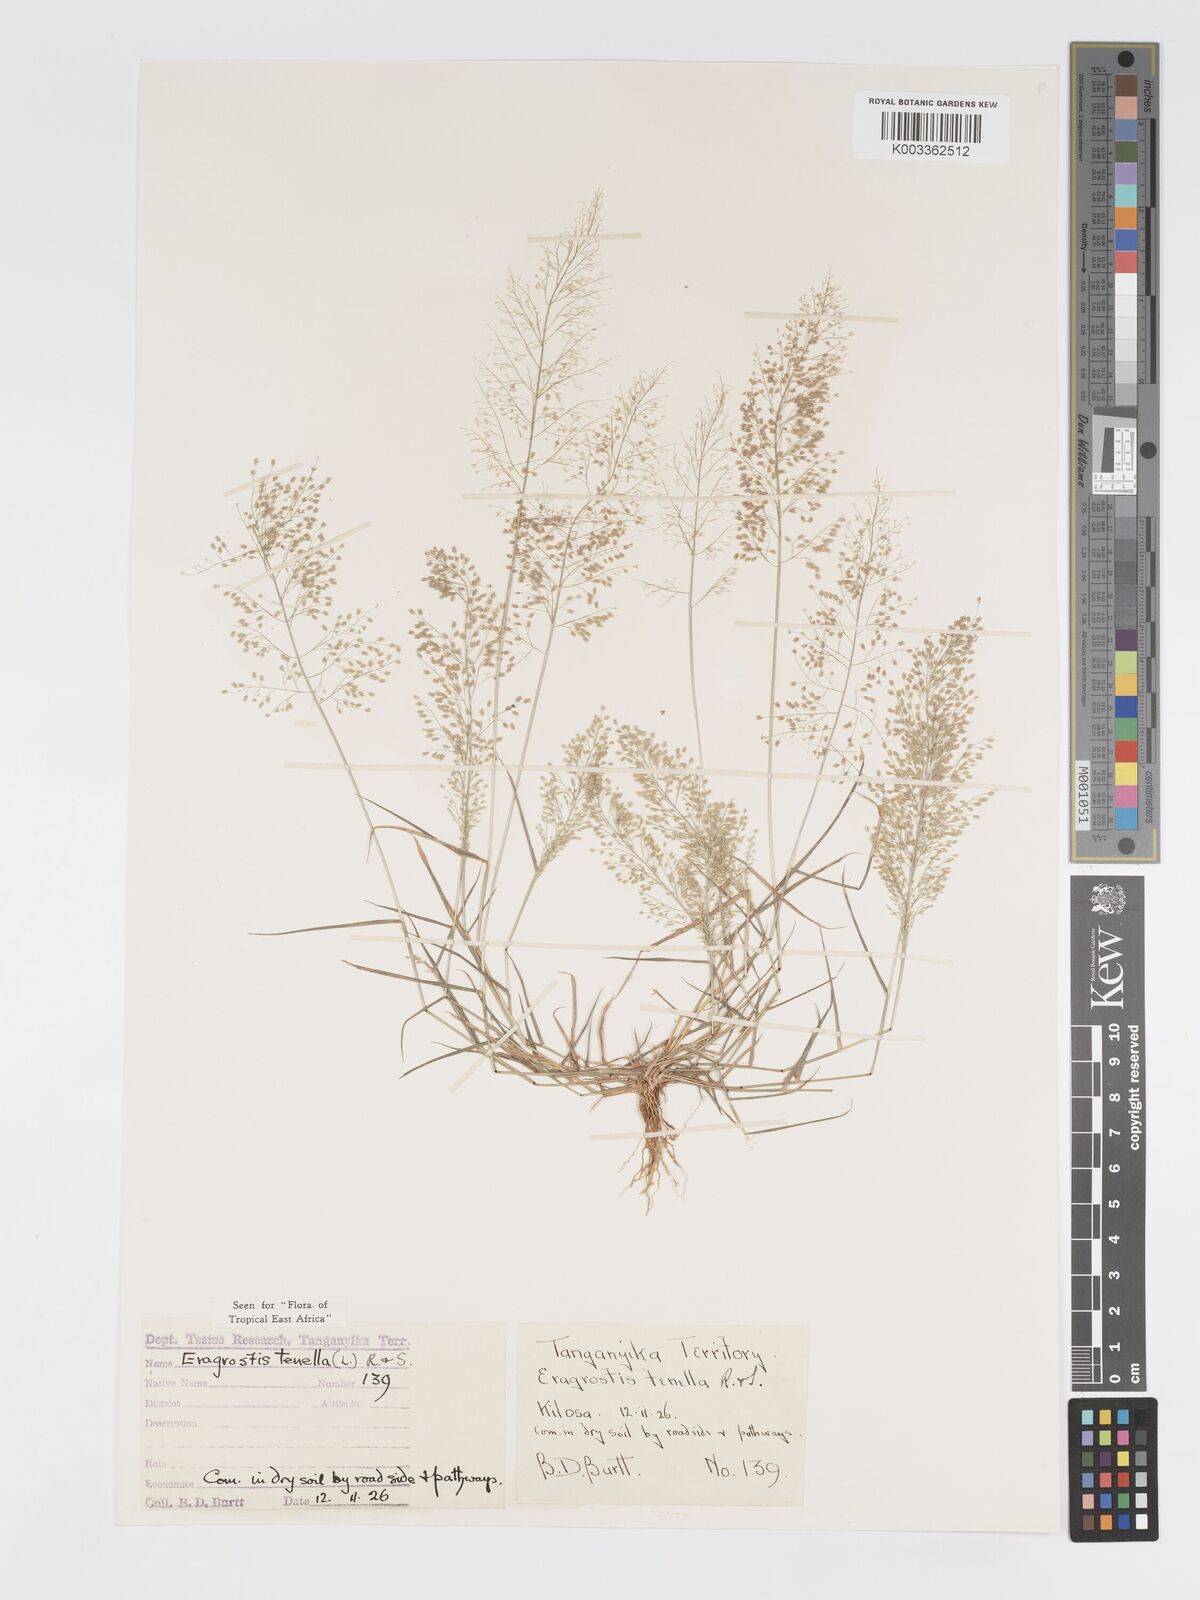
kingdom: Plantae
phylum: Tracheophyta
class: Liliopsida
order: Poales
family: Poaceae
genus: Eragrostis
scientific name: Eragrostis tenella
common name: Japanese lovegrass
